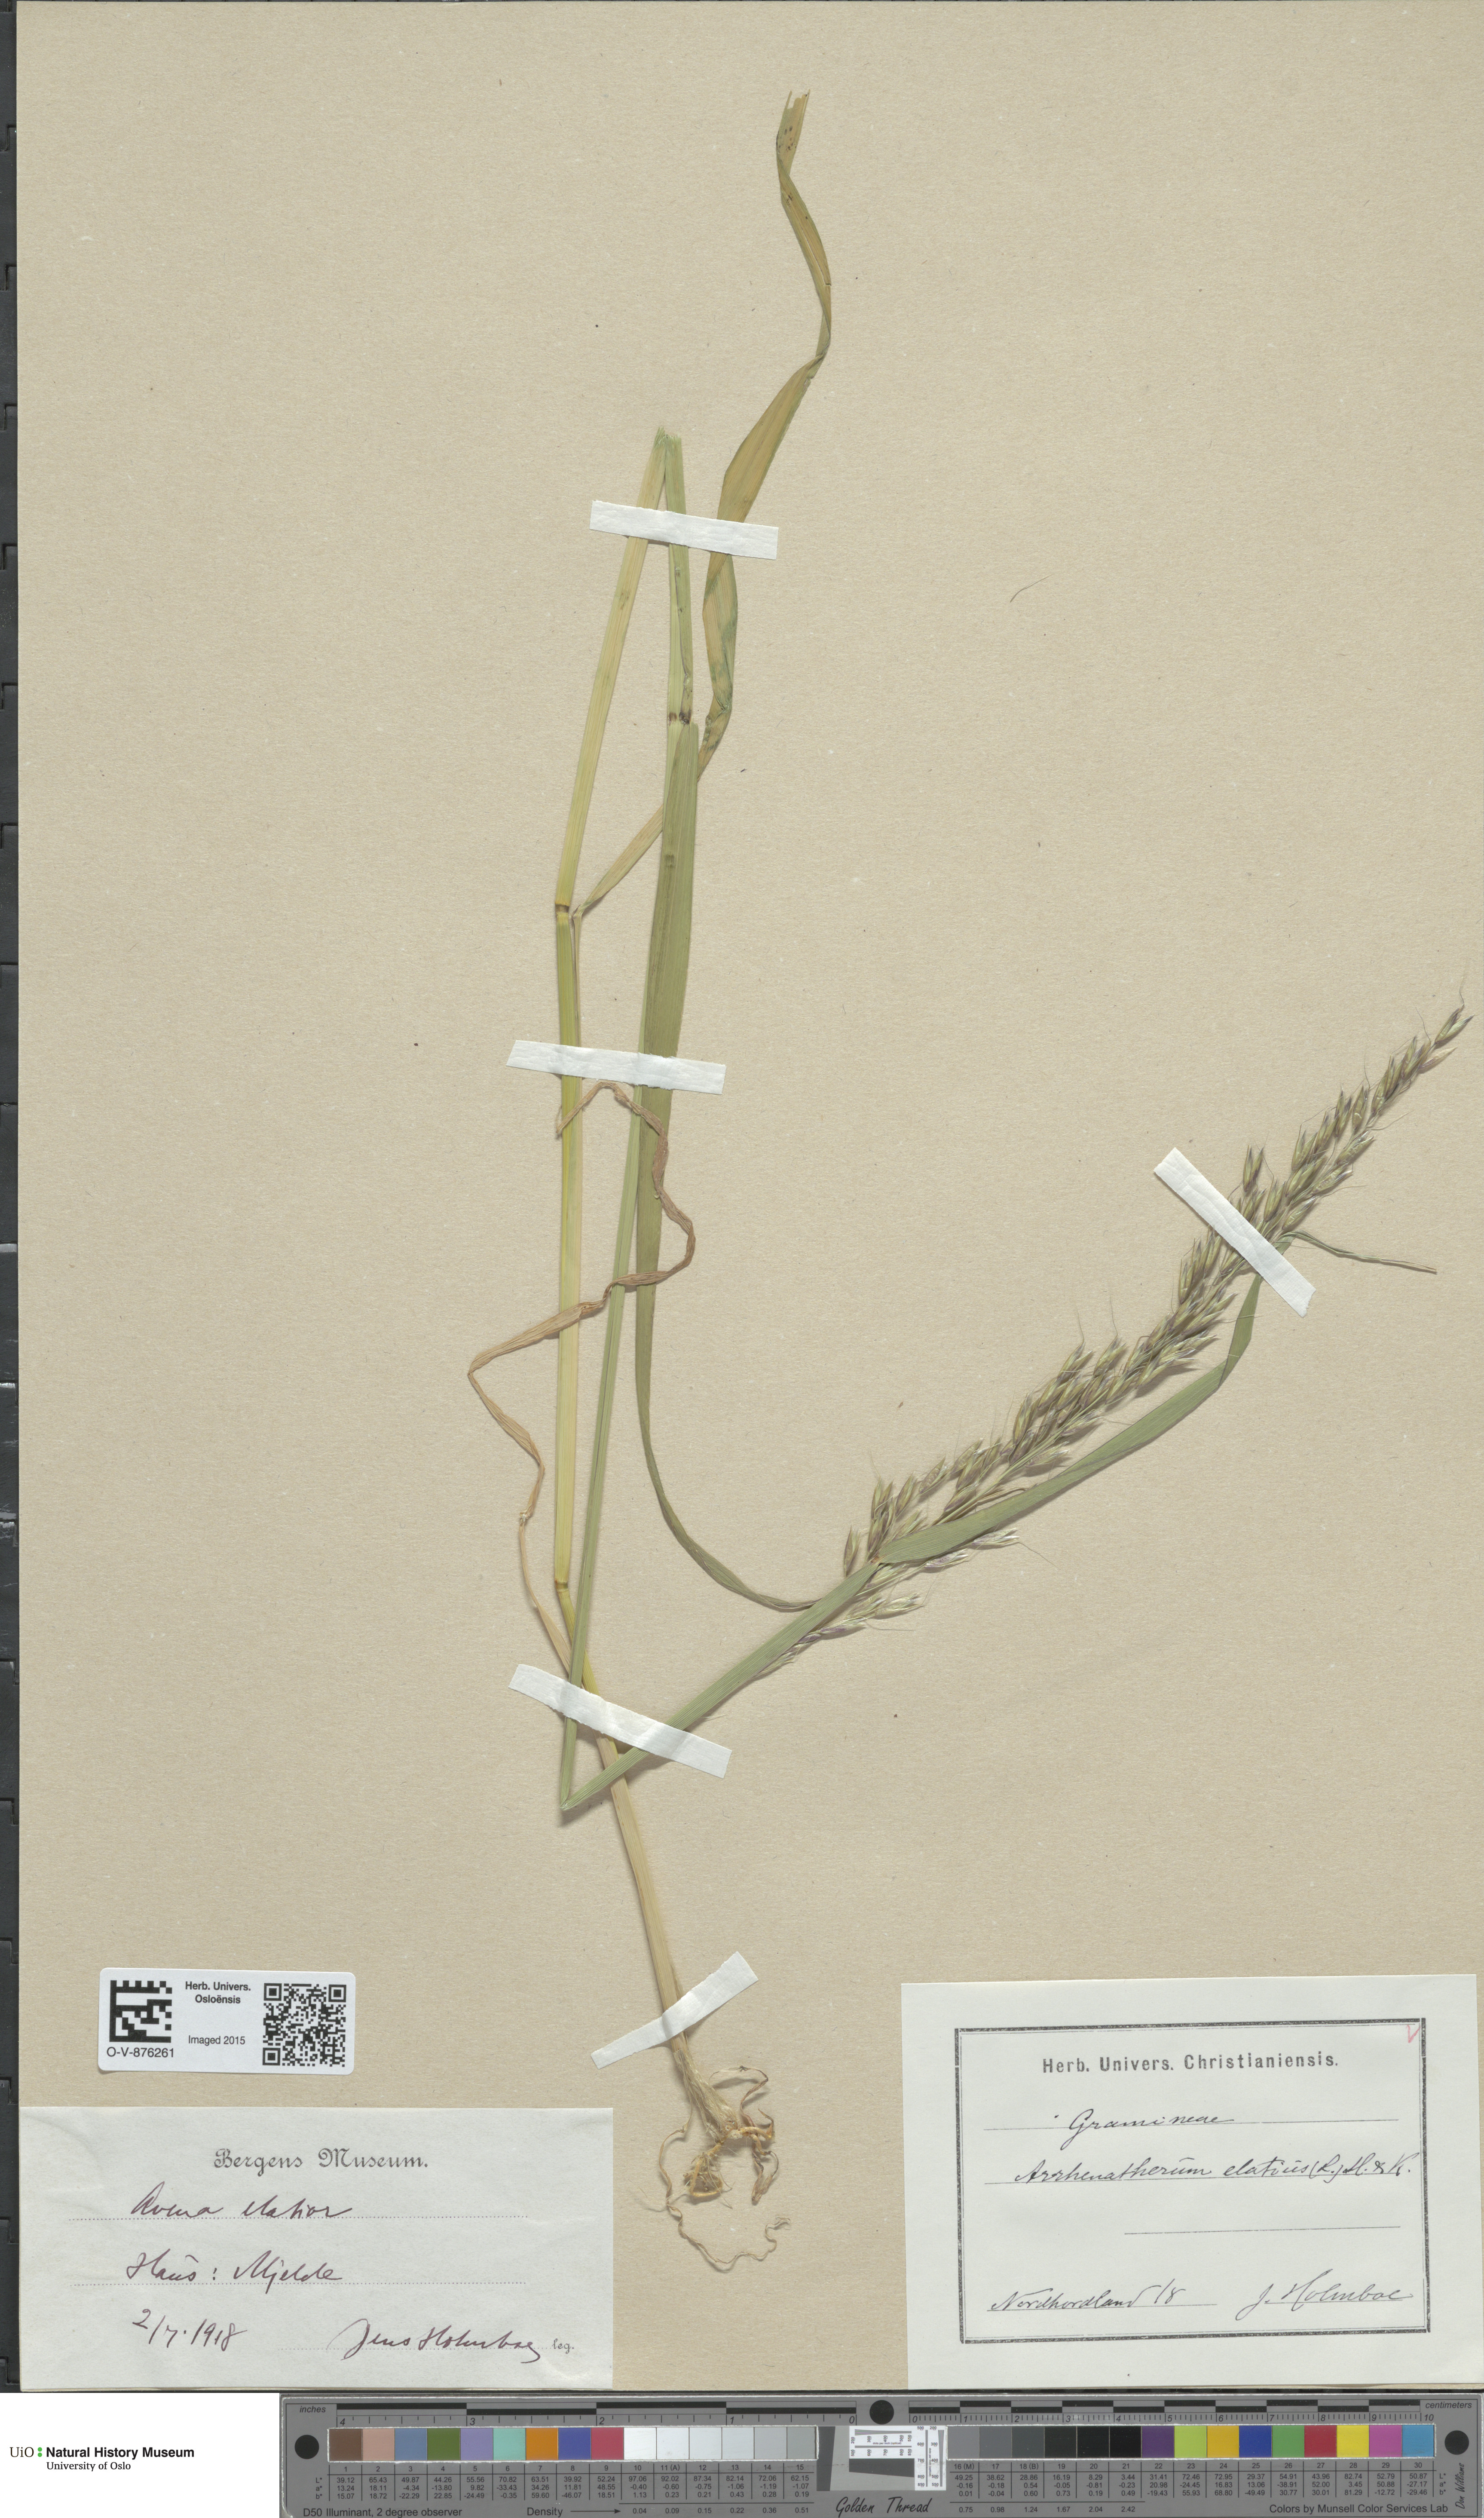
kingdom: Plantae
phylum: Tracheophyta
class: Liliopsida
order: Poales
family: Poaceae
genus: Arrhenatherum
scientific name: Arrhenatherum elatius
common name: Tall oatgrass
